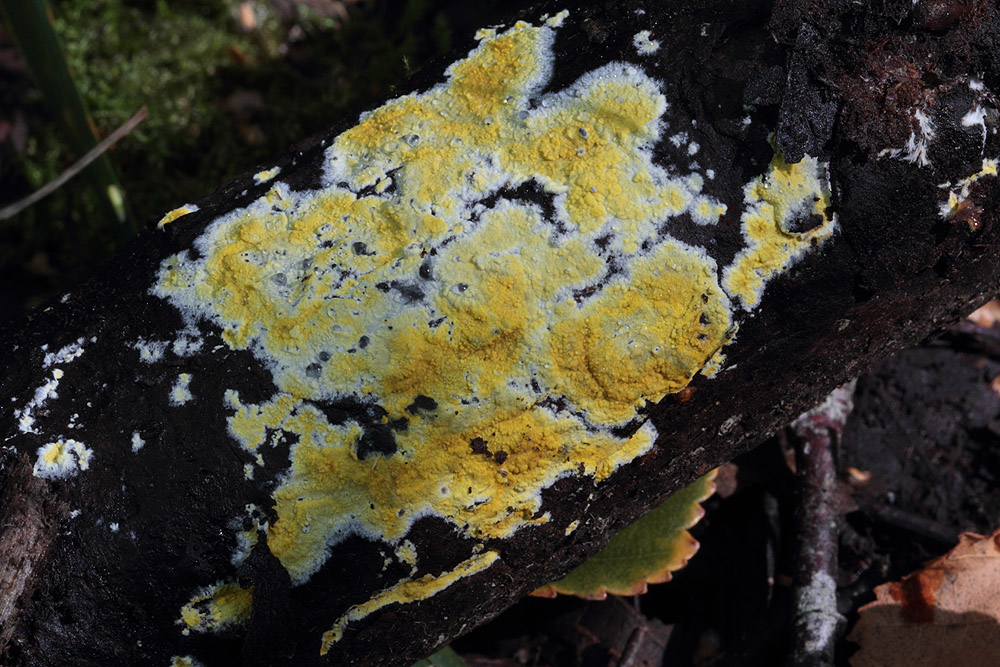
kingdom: Fungi
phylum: Basidiomycota
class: Agaricomycetes
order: Polyporales
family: Meruliaceae
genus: Phlebiodontia
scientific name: Phlebiodontia subochracea
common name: svovl-åresvamp
